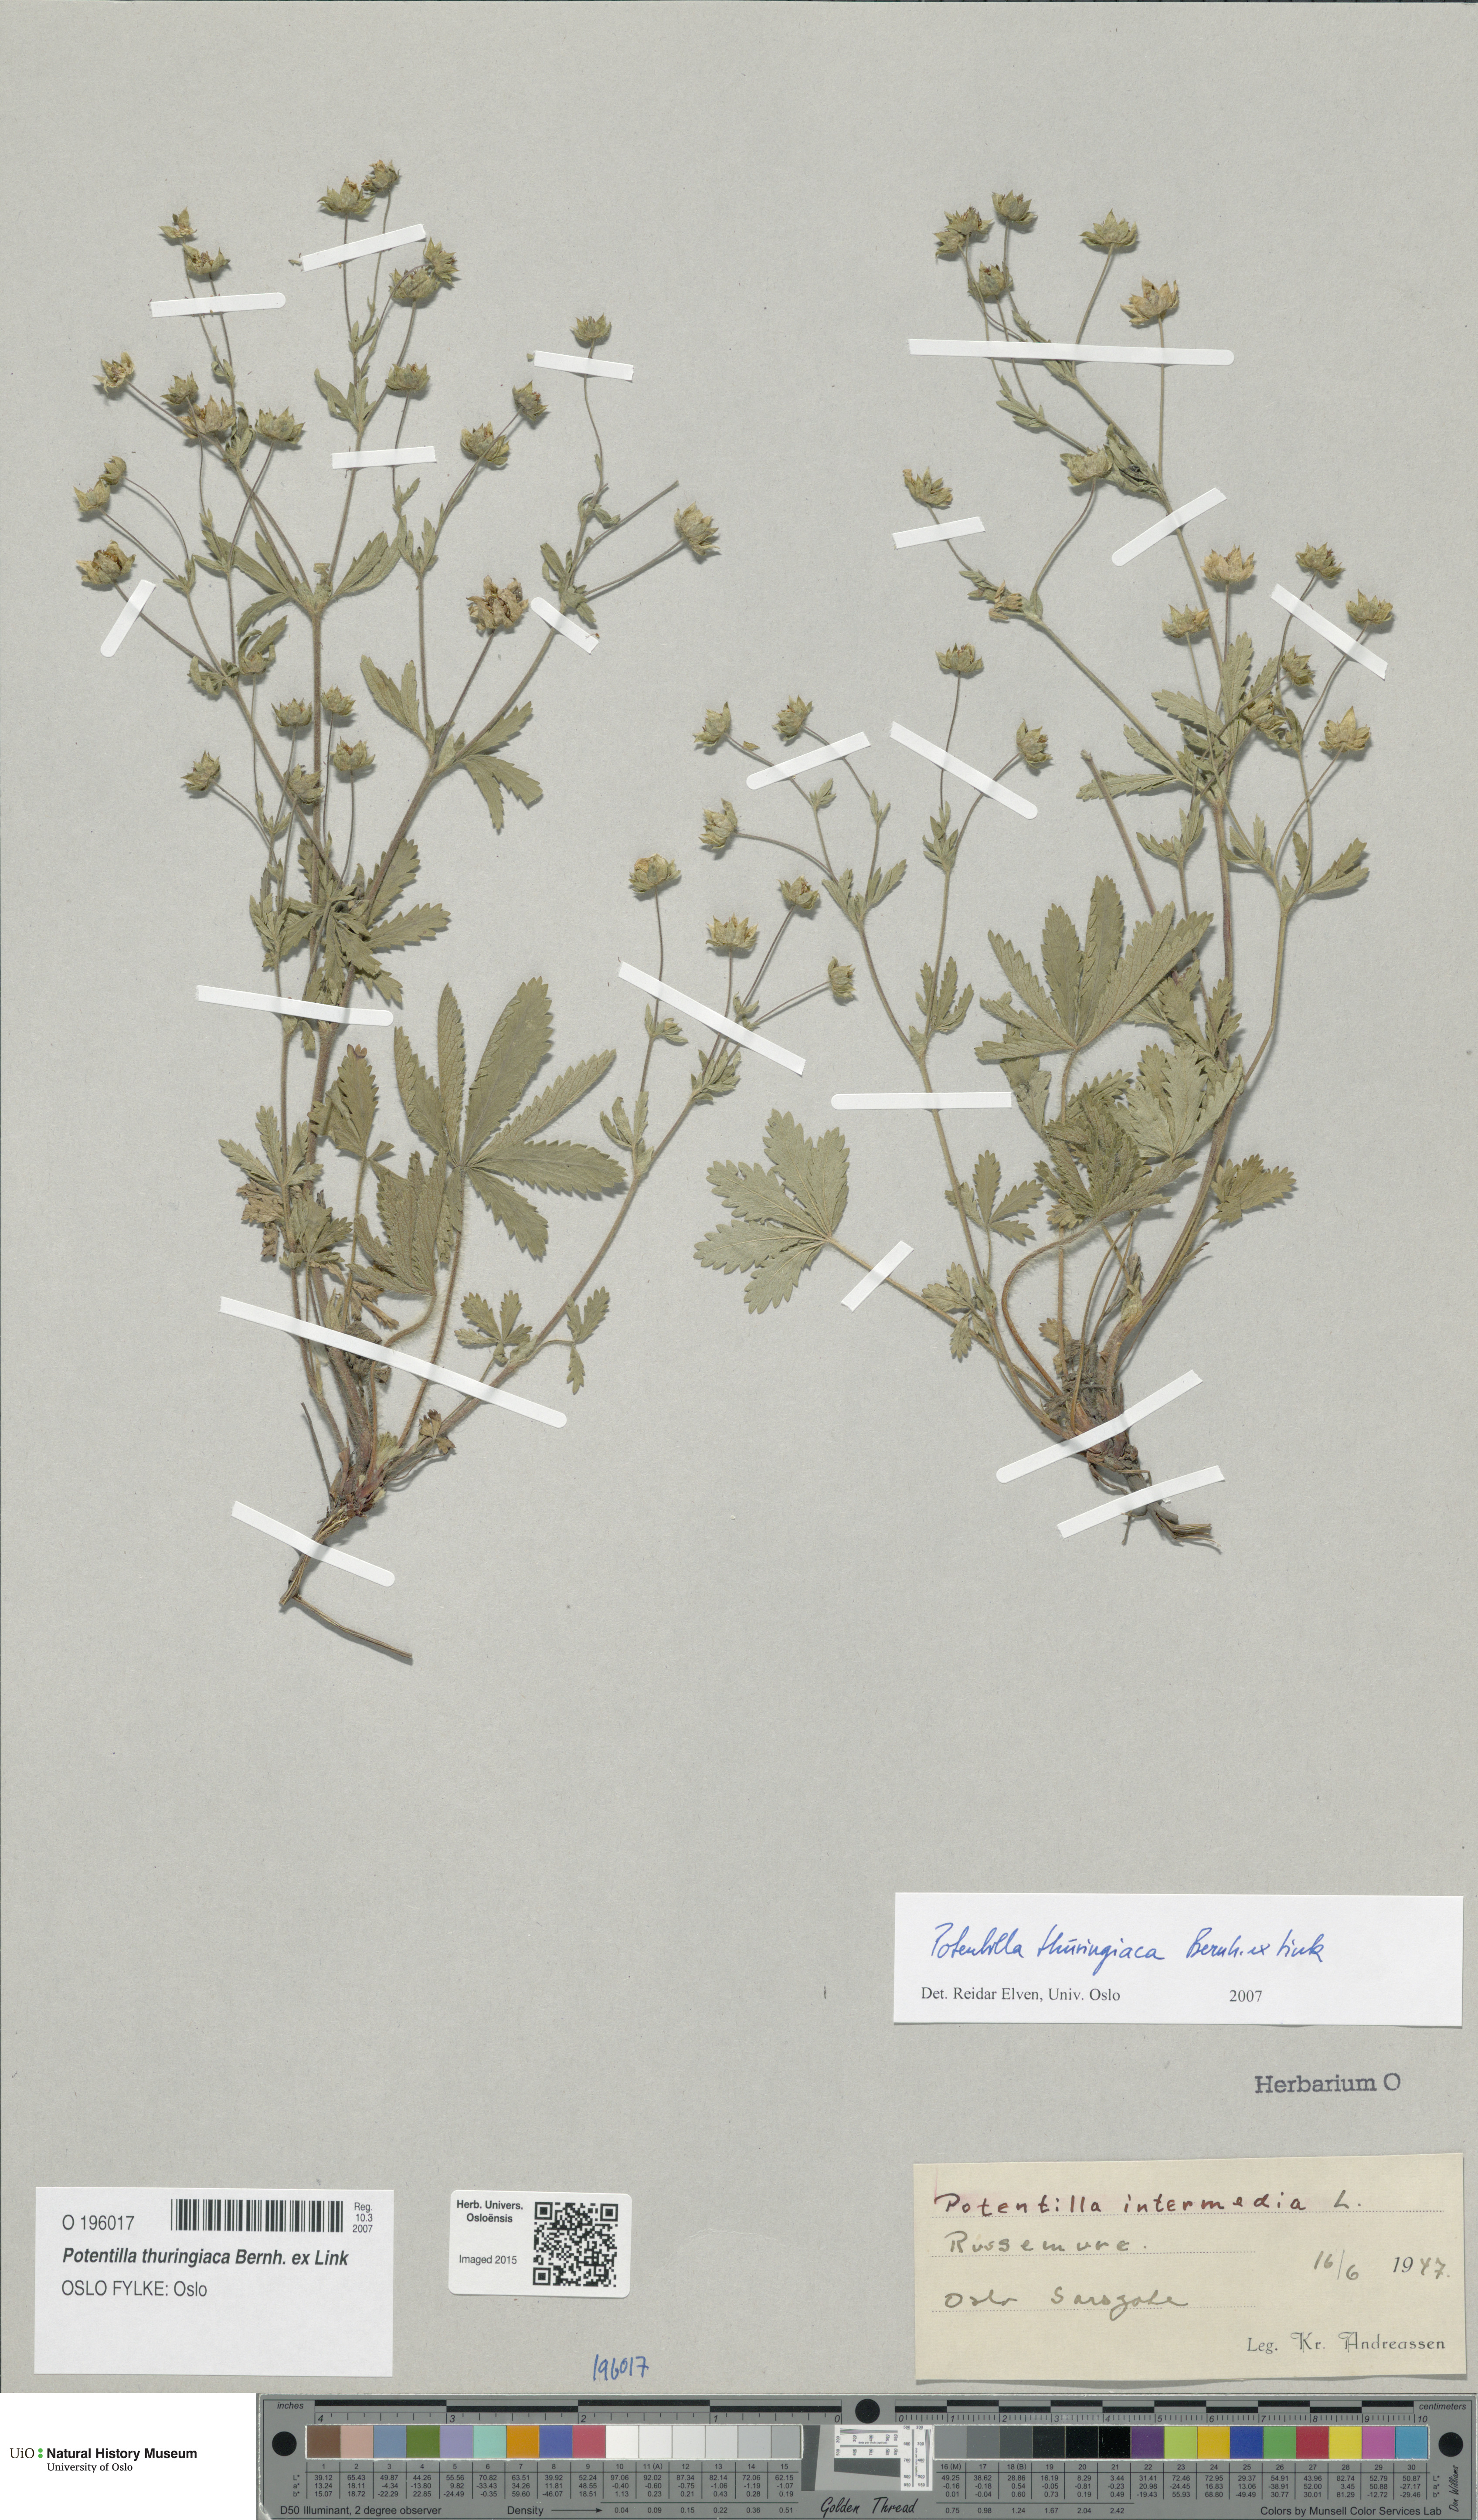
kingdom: Plantae
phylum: Tracheophyta
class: Magnoliopsida
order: Rosales
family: Rosaceae
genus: Potentilla
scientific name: Potentilla thuringiaca
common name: European cinquefoil
